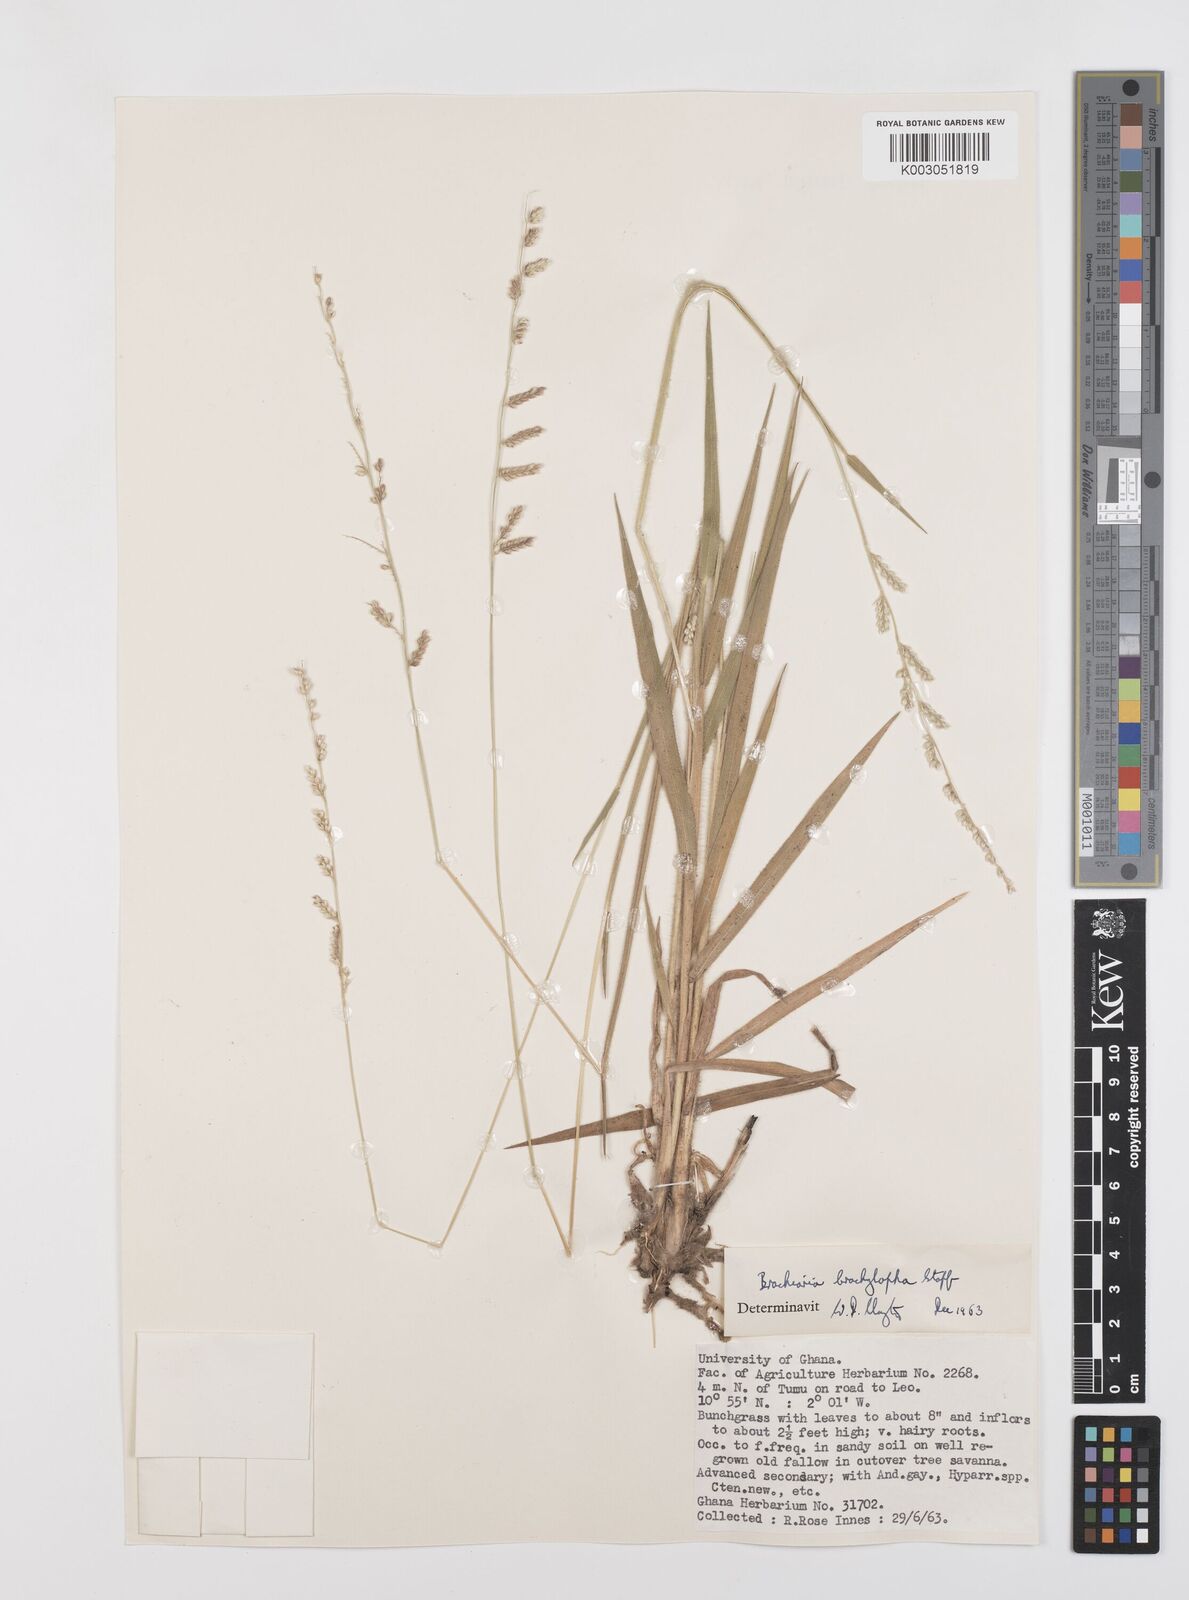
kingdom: Plantae
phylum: Tracheophyta
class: Liliopsida
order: Poales
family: Poaceae
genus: Urochloa
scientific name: Urochloa serrata
